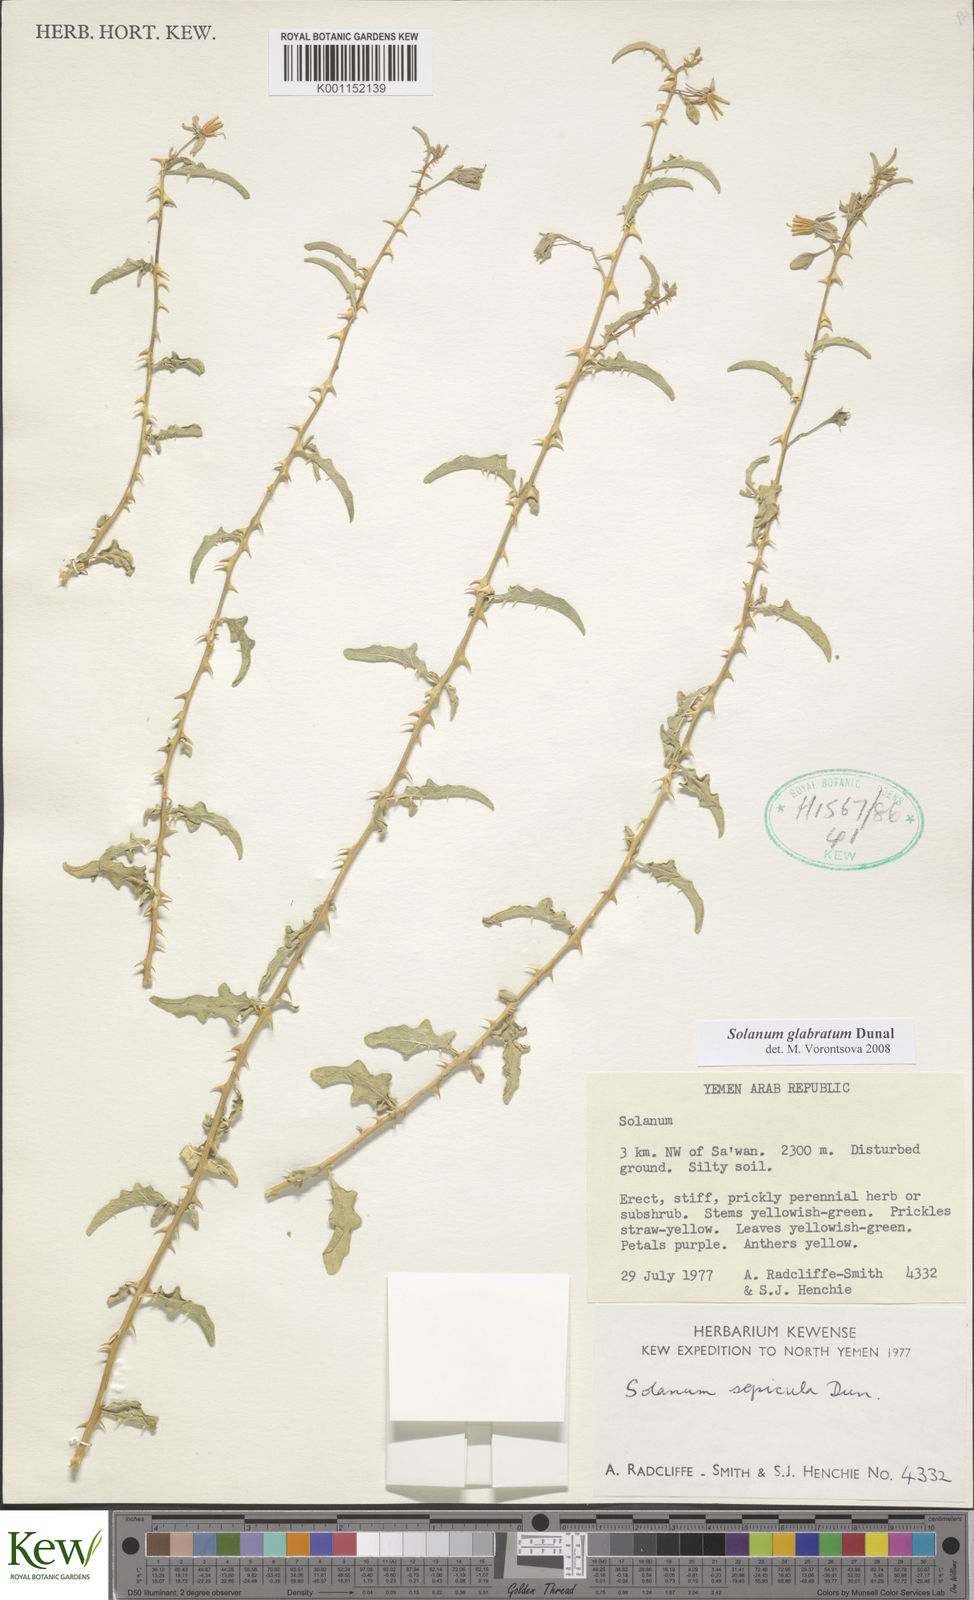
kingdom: Plantae
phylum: Tracheophyta
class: Magnoliopsida
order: Solanales
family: Solanaceae
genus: Solanum
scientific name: Solanum glabratum
